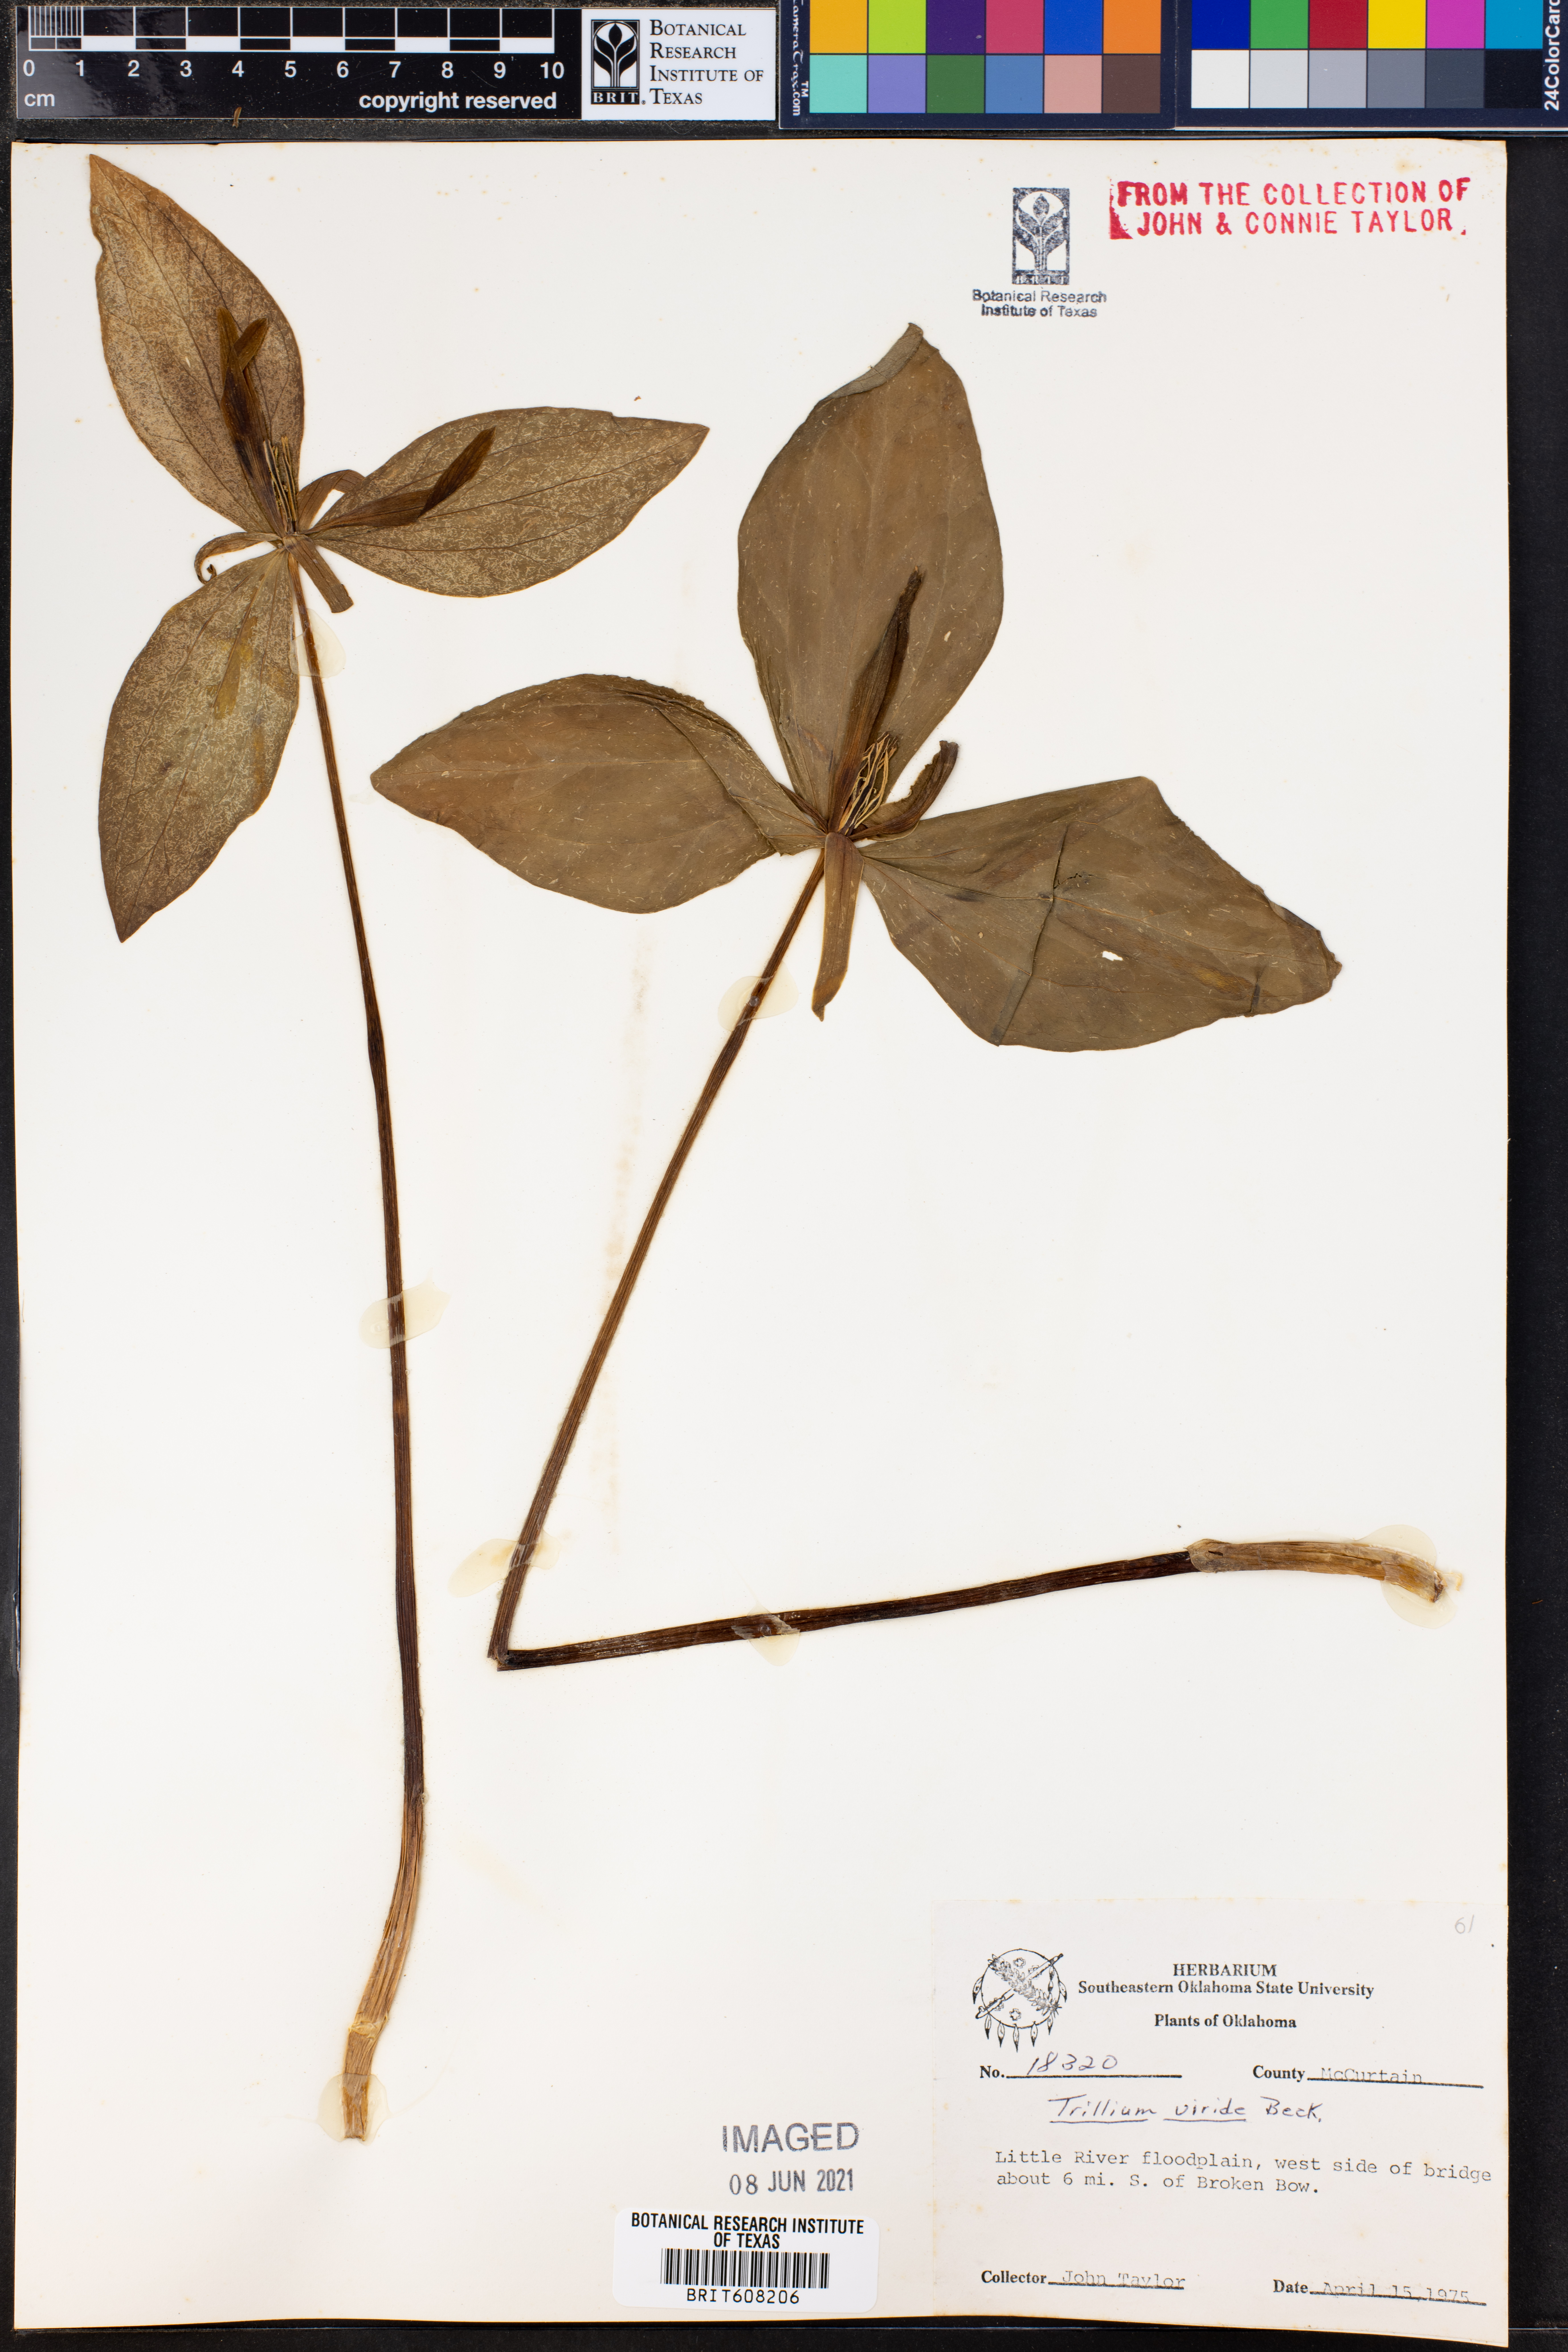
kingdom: Plantae
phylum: Tracheophyta
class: Liliopsida
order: Liliales
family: Melanthiaceae
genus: Trillium
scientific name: Trillium viride
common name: Green trillium
